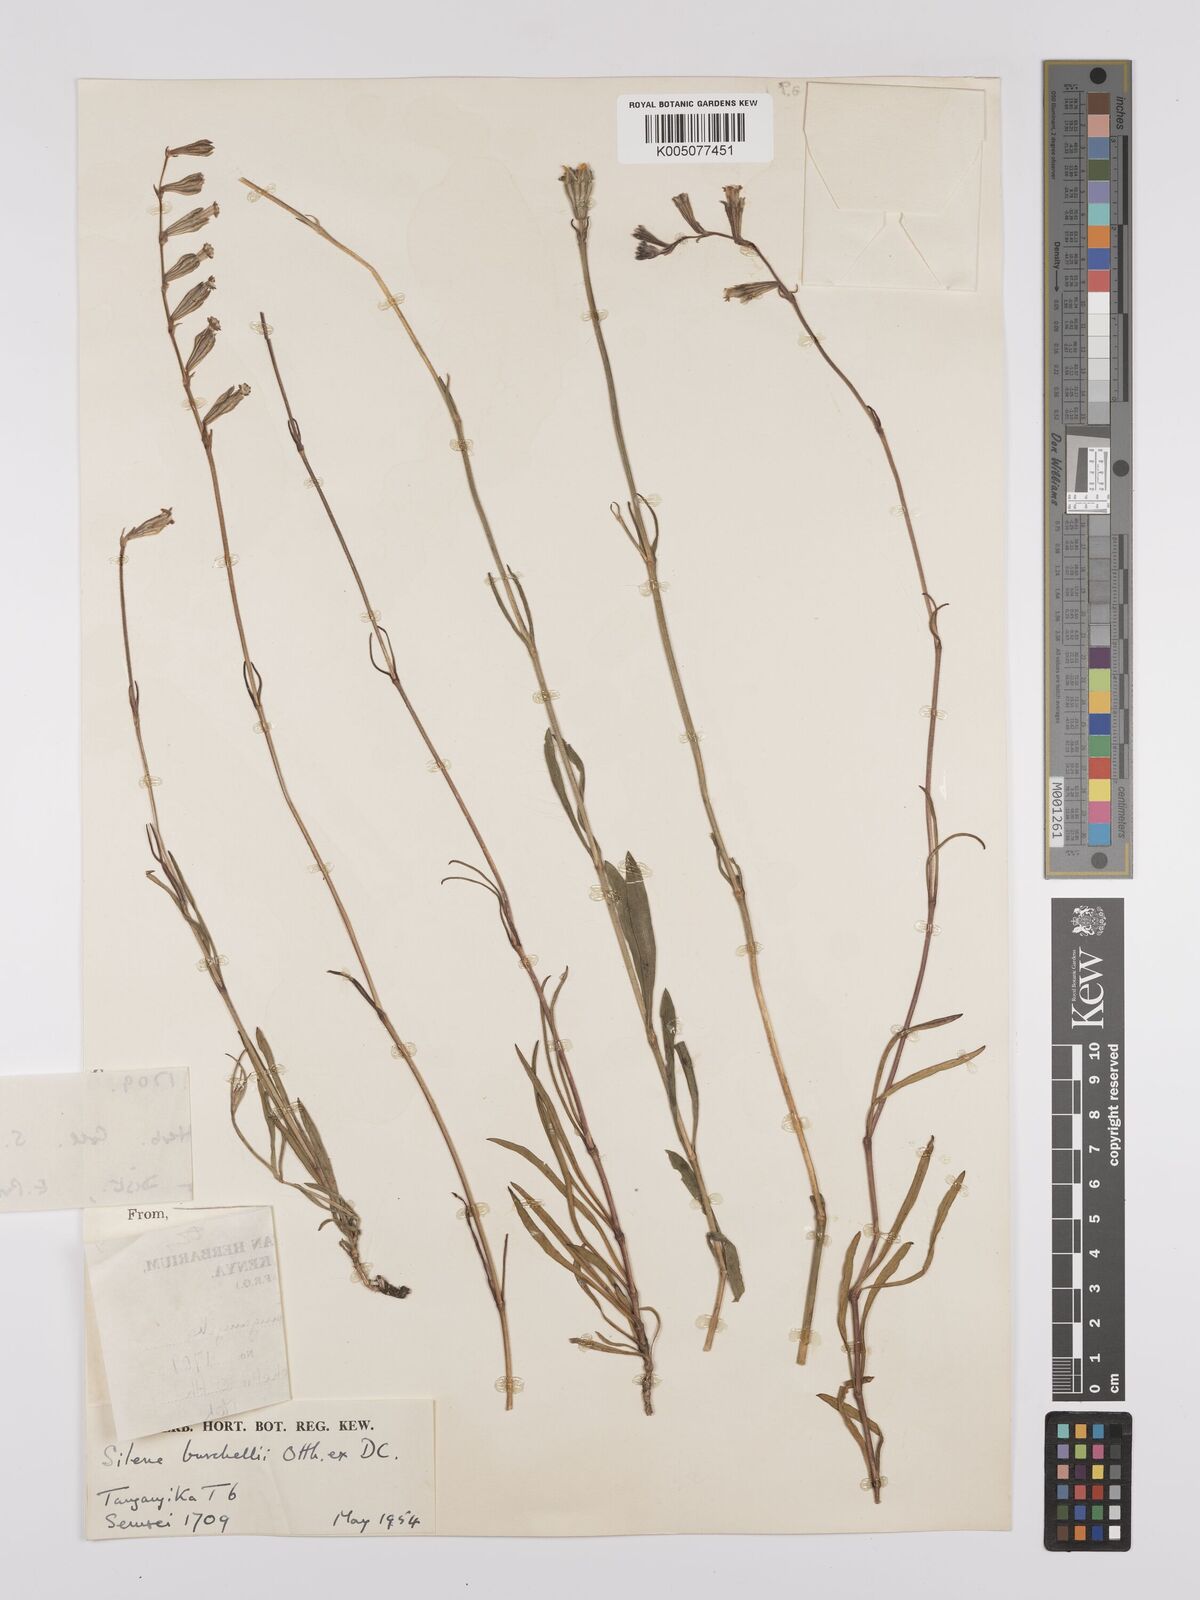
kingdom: Plantae
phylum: Tracheophyta
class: Magnoliopsida
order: Caryophyllales
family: Caryophyllaceae
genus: Silene
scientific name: Silene burchellii
